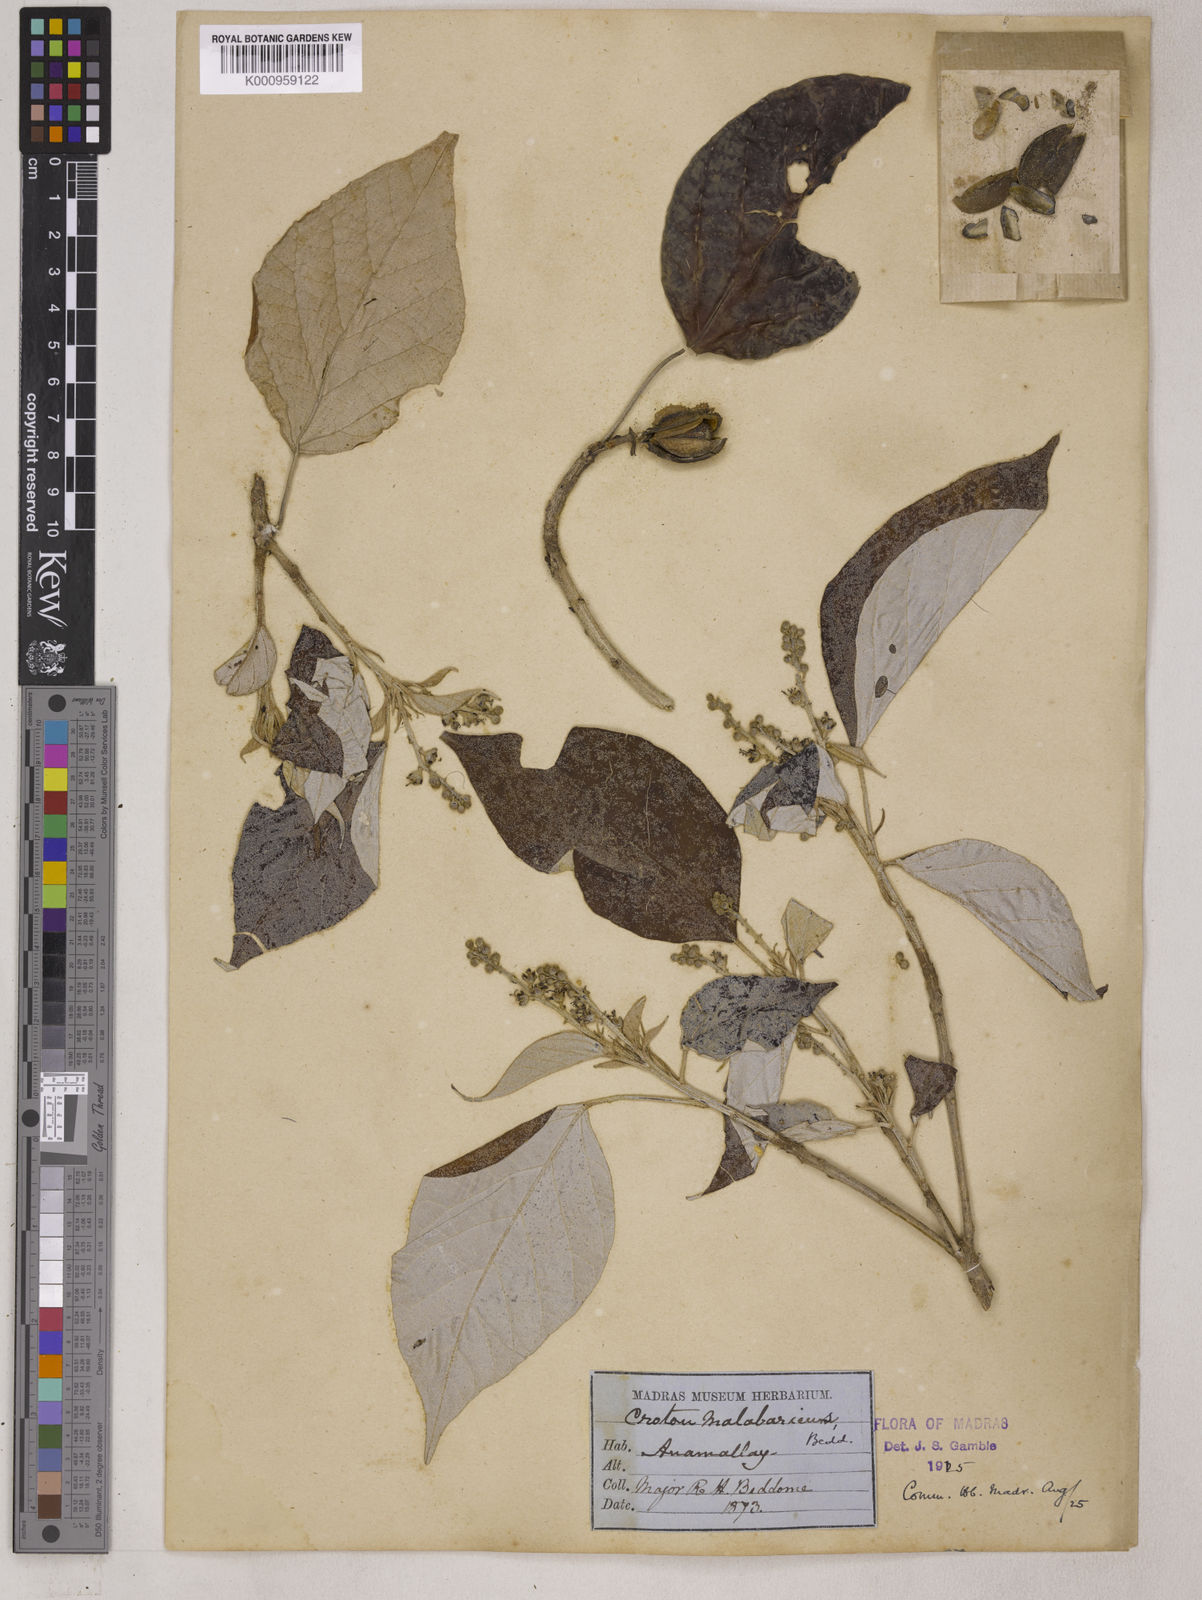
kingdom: Plantae
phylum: Tracheophyta
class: Magnoliopsida
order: Malpighiales
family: Euphorbiaceae
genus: Croton
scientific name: Croton malabaricus
